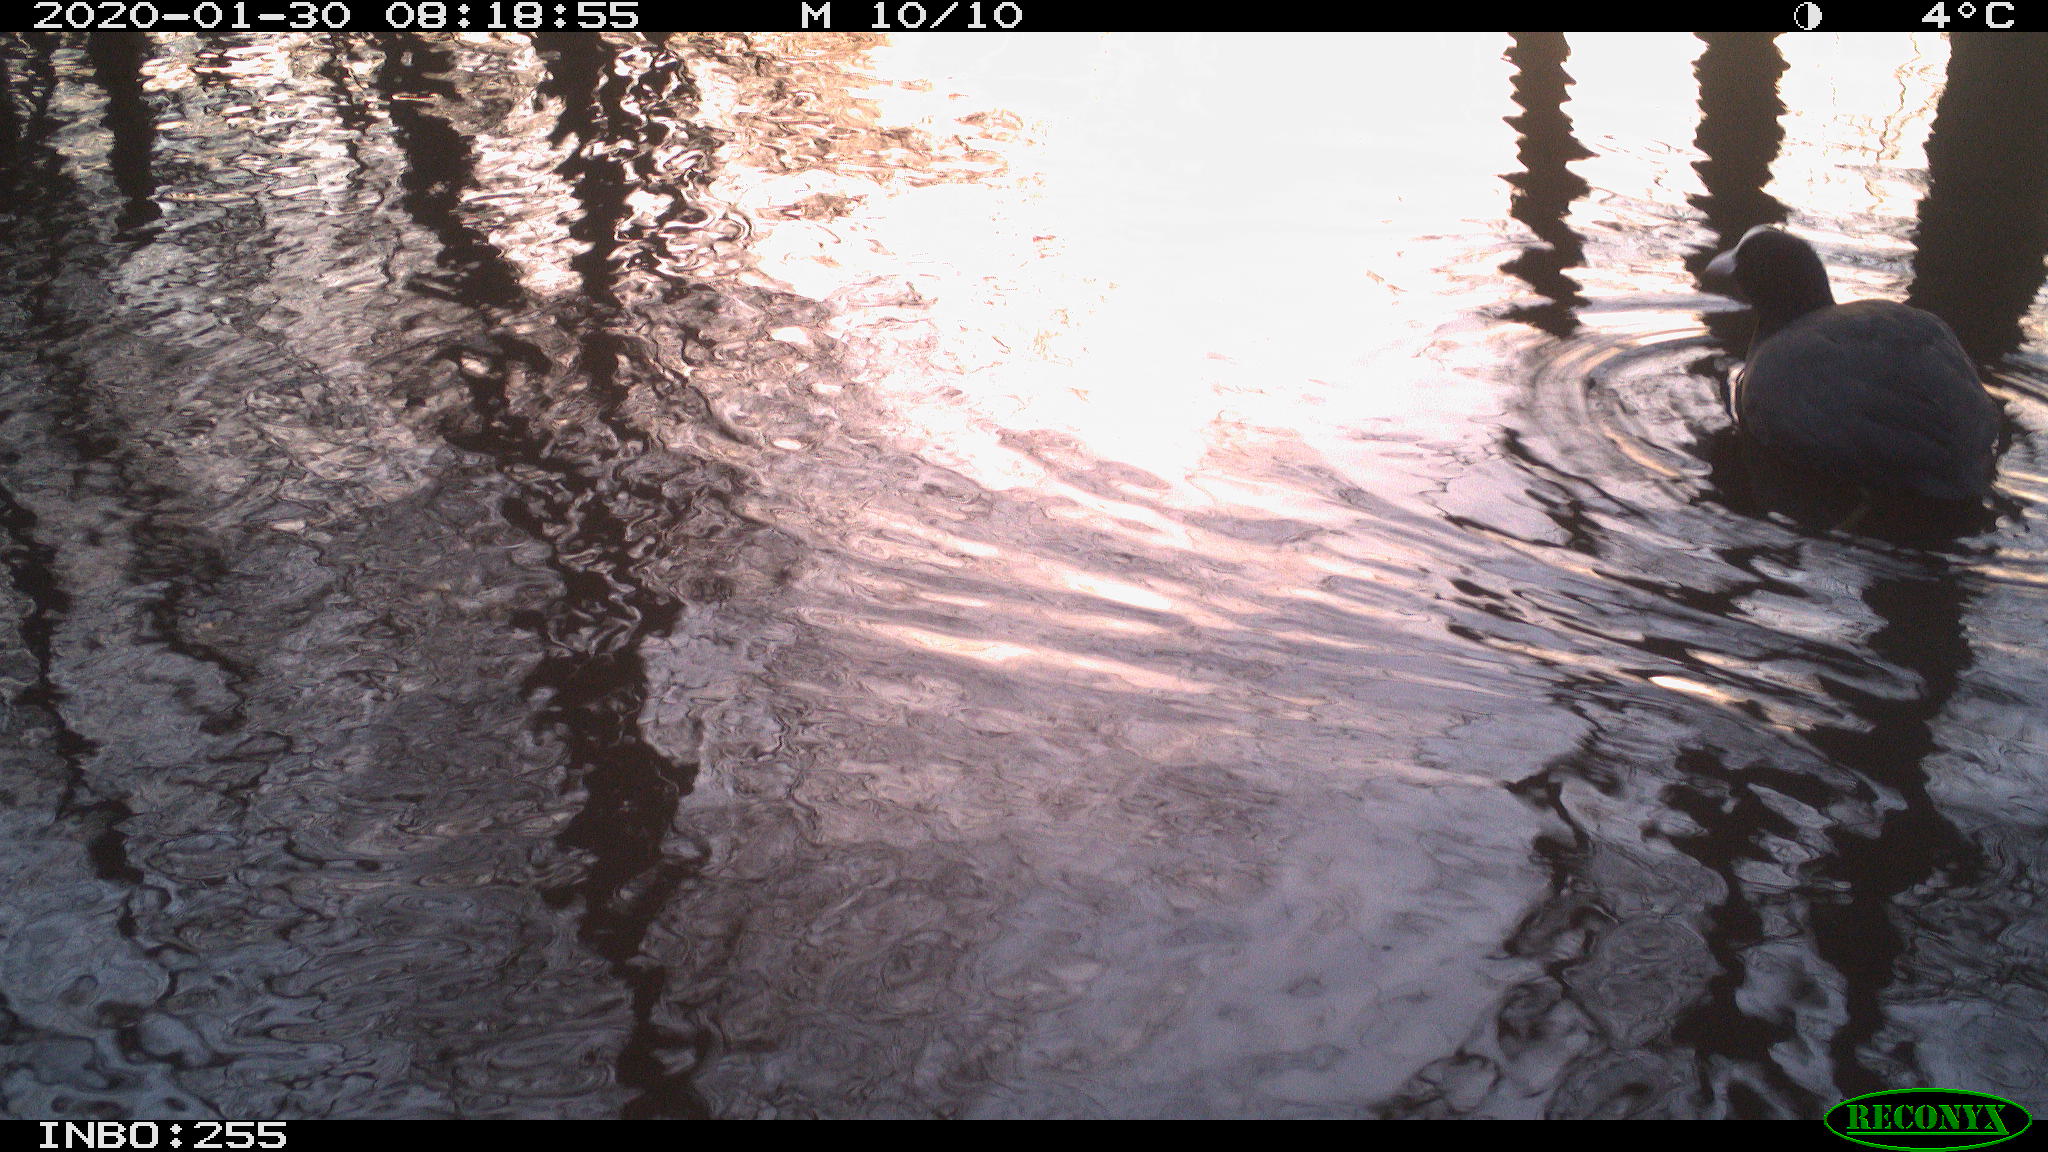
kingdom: Animalia
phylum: Chordata
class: Aves
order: Gruiformes
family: Rallidae
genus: Fulica
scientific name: Fulica atra
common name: Eurasian coot
